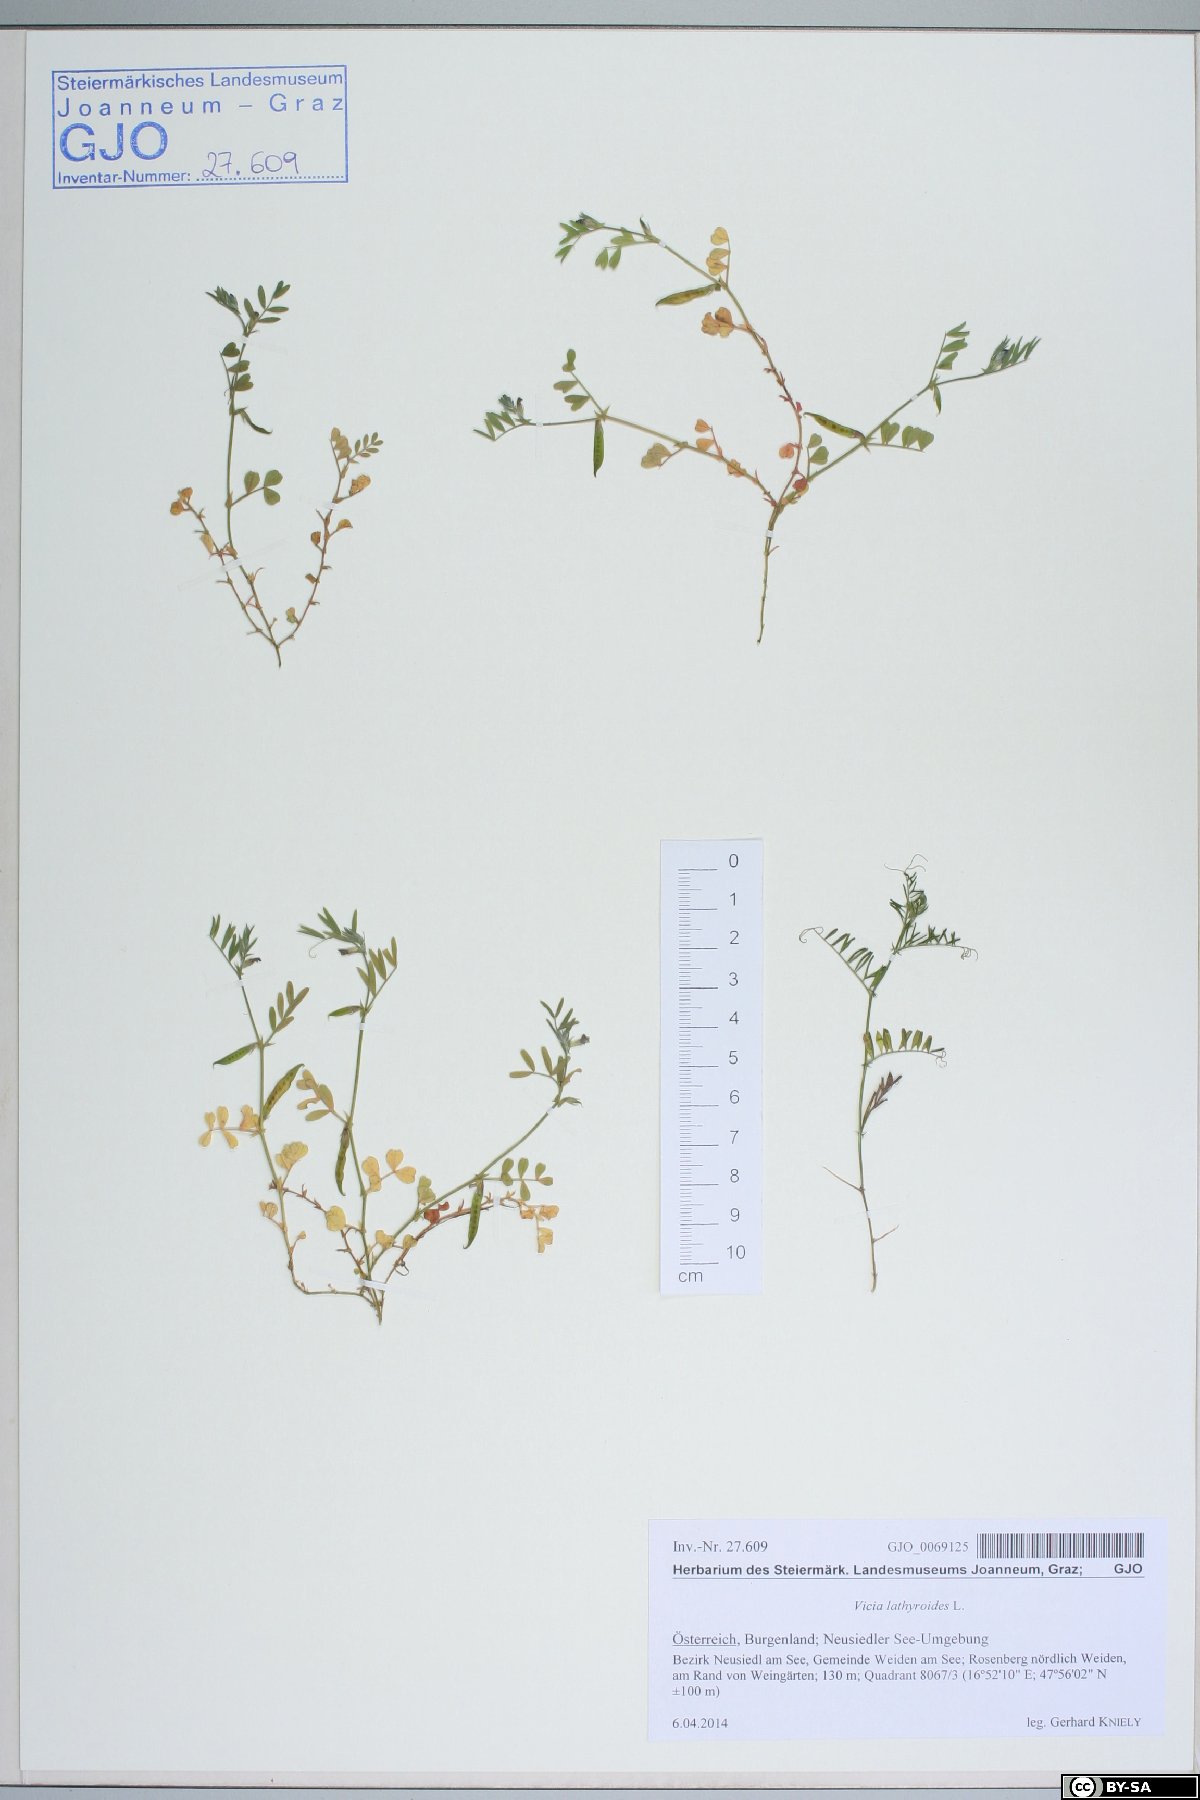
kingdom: Plantae
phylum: Tracheophyta
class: Magnoliopsida
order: Fabales
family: Fabaceae
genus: Vicia
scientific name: Vicia lathyroides
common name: Spring vetch
